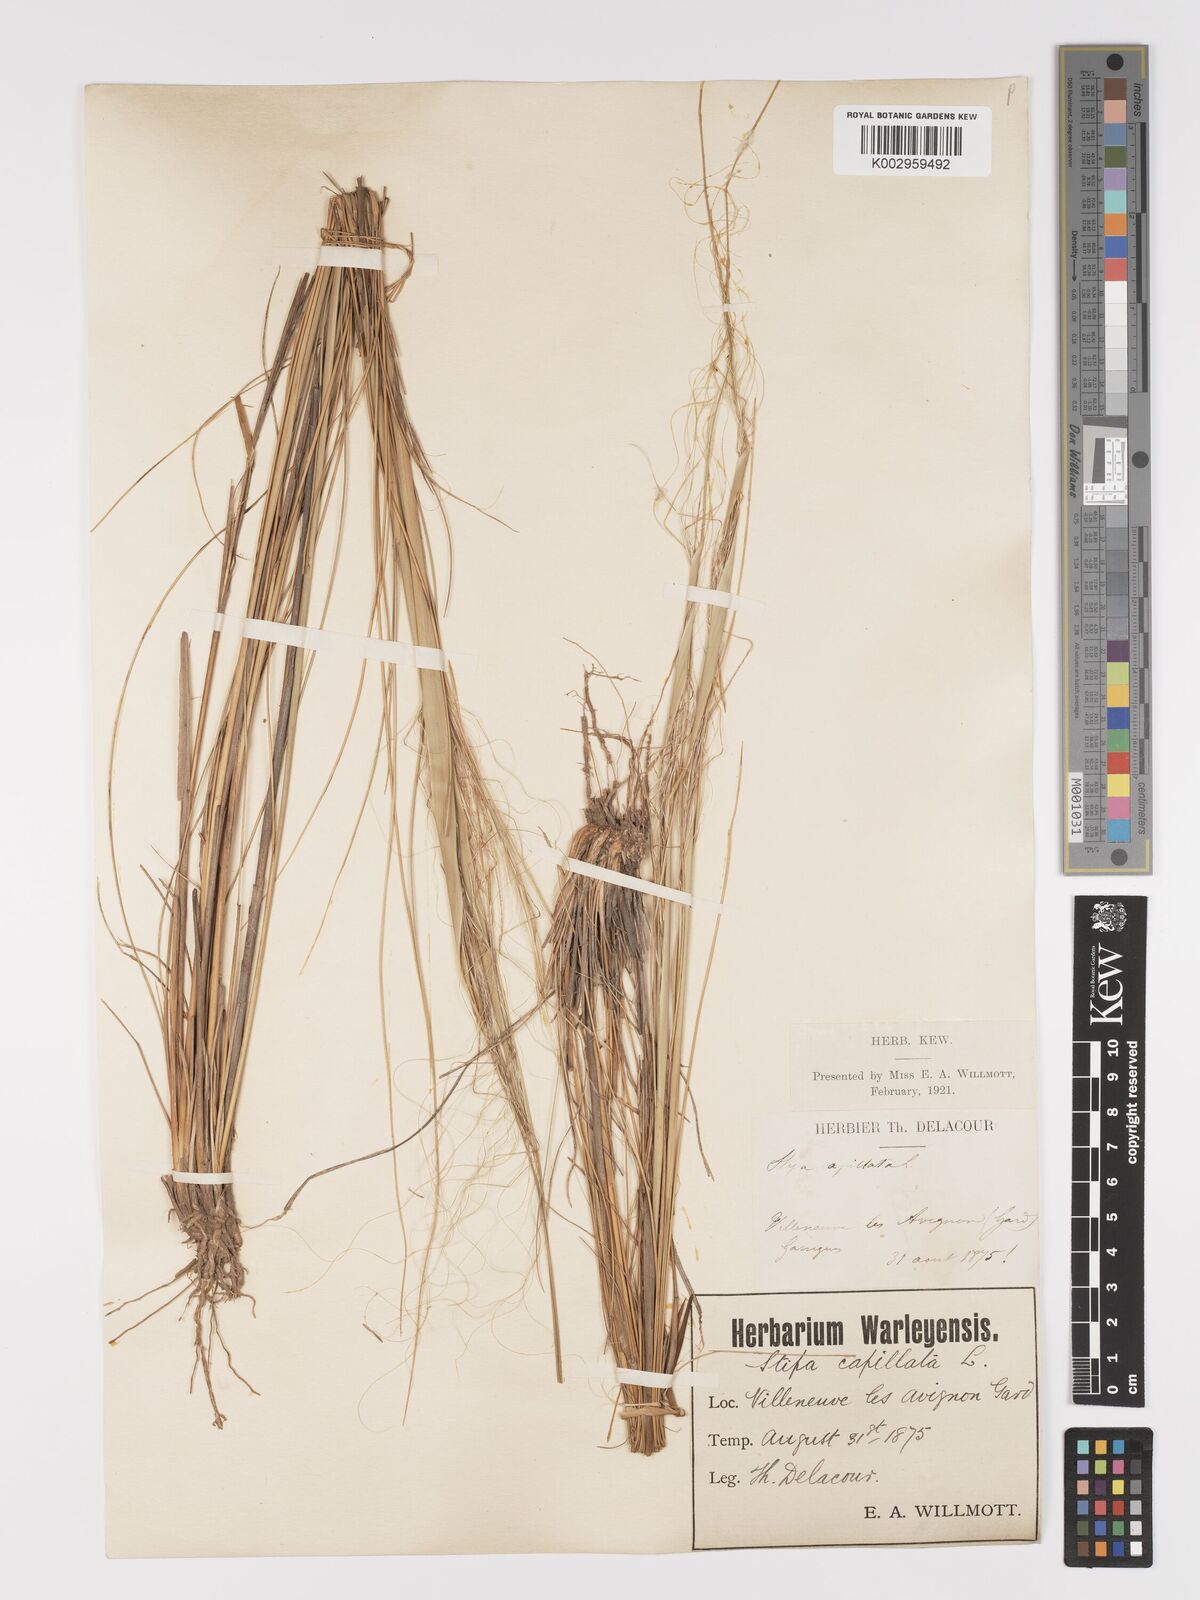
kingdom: Plantae
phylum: Tracheophyta
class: Liliopsida
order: Poales
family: Poaceae
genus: Stipa
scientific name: Stipa capillata
